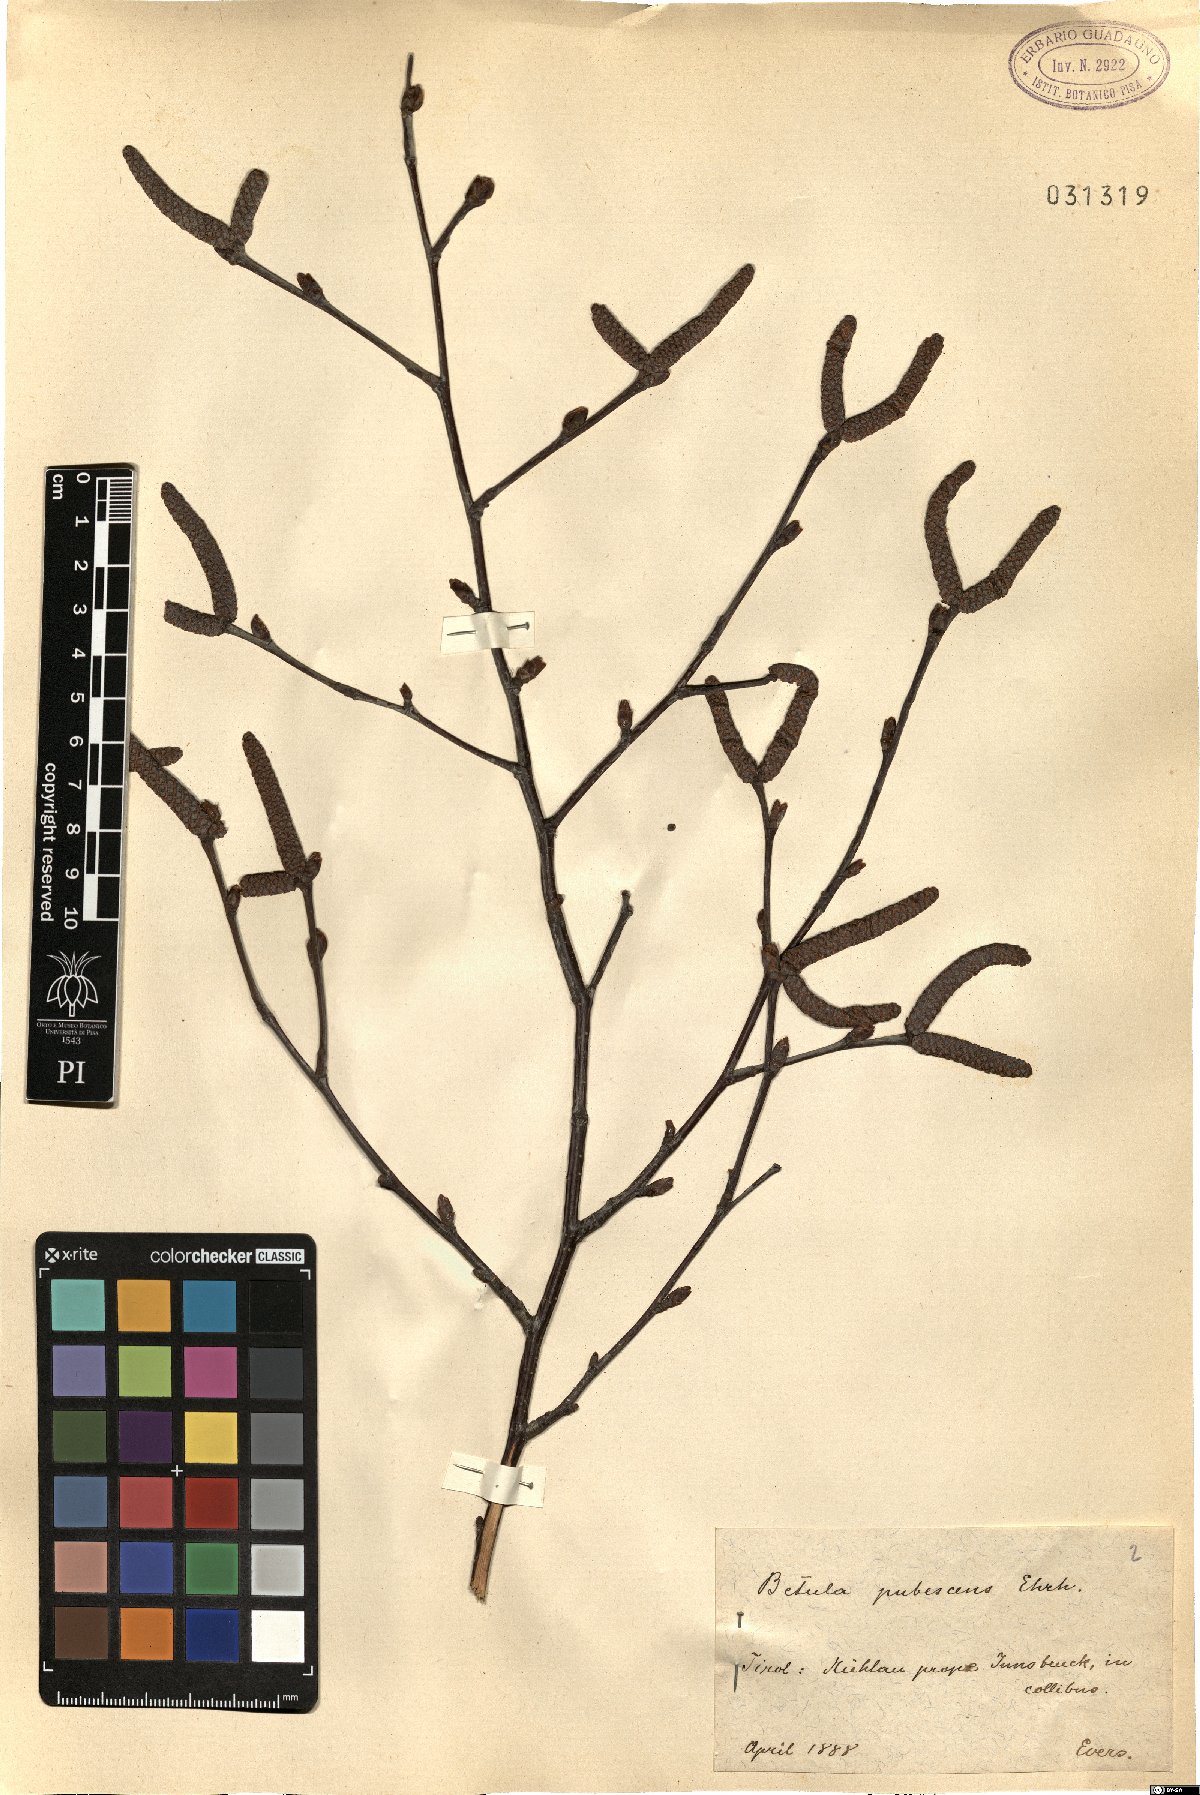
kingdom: Plantae
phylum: Tracheophyta
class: Magnoliopsida
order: Fagales
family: Betulaceae
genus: Betula
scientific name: Betula pubescens
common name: Downy birch
